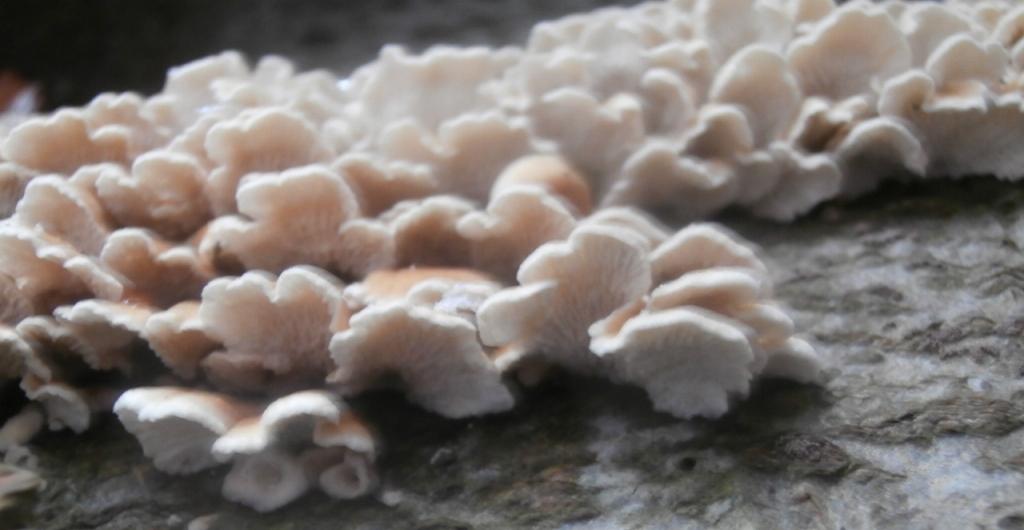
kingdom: Fungi
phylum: Basidiomycota
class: Agaricomycetes
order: Amylocorticiales
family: Amylocorticiaceae
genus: Plicaturopsis
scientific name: Plicaturopsis crispa
